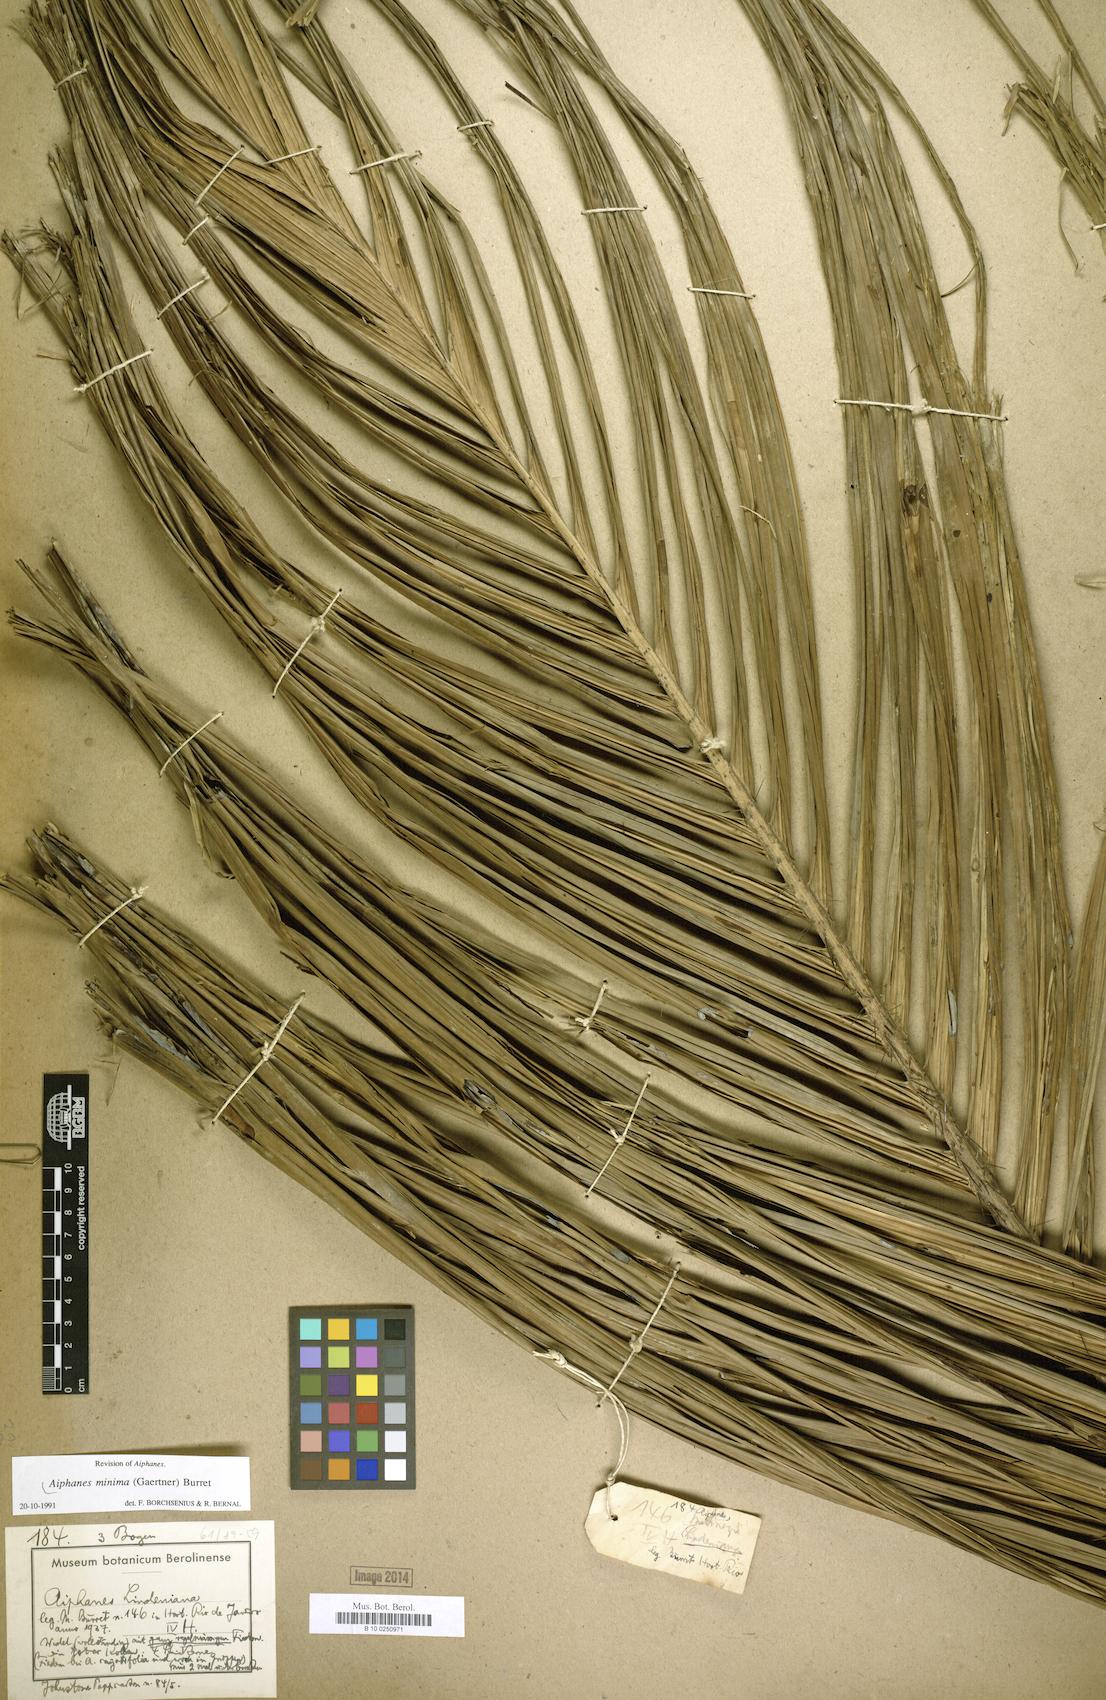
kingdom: Plantae
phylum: Tracheophyta
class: Liliopsida
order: Arecales
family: Arecaceae
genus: Aiphanes
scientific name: Aiphanes minima
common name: Grigri
